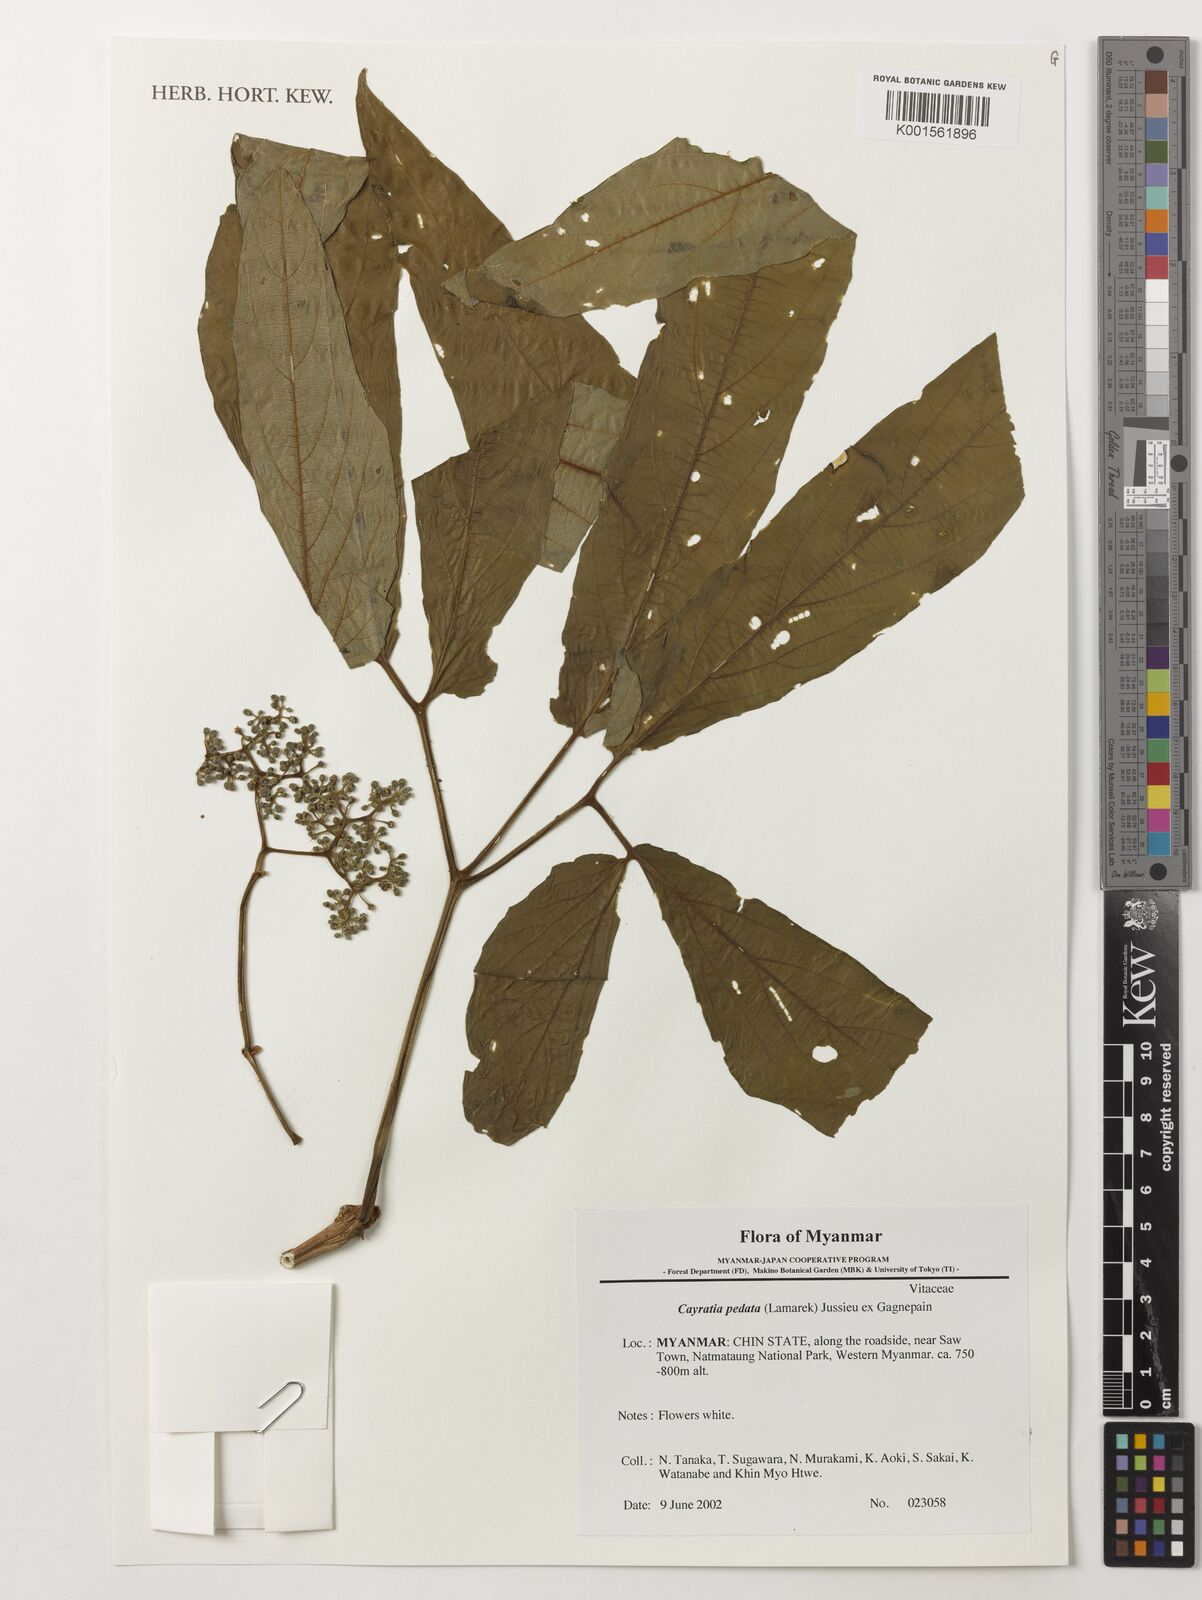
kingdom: Plantae
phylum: Tracheophyta
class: Magnoliopsida
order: Vitales
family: Vitaceae
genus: Cayratia
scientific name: Cayratia pedata
